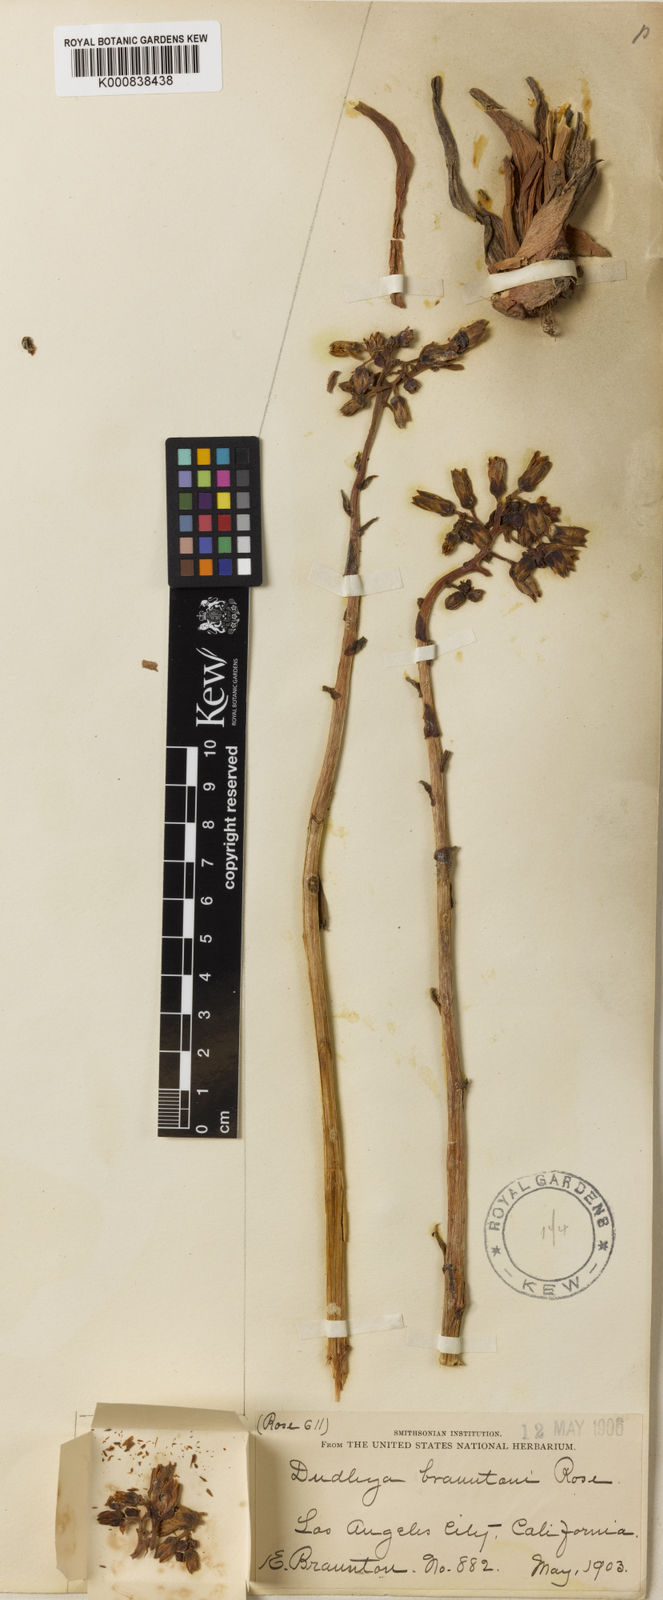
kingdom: Plantae
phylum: Tracheophyta
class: Magnoliopsida
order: Saxifragales
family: Crassulaceae
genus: Dudleya
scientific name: Dudleya lanceolata
